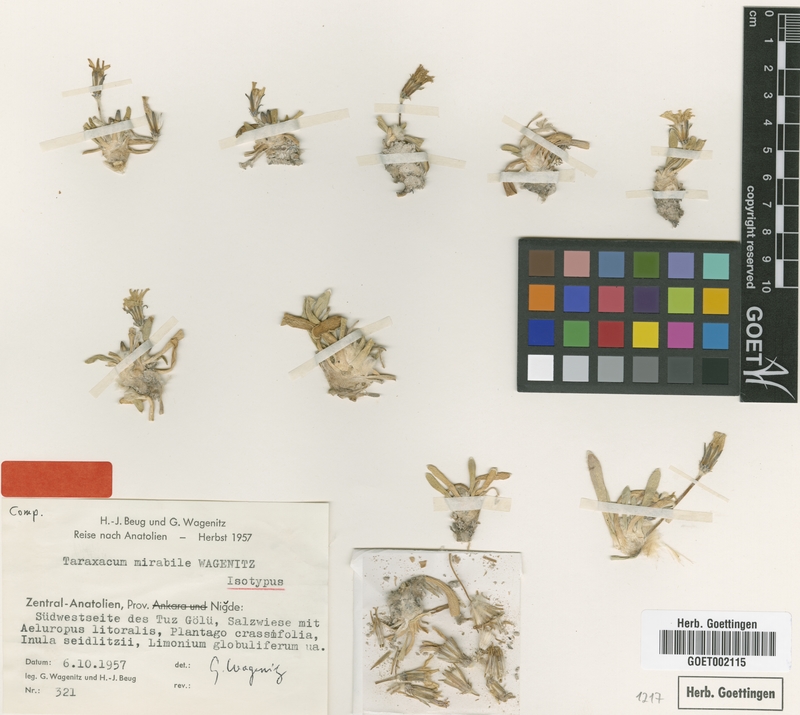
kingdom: Plantae
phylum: Tracheophyta
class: Magnoliopsida
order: Asterales
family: Asteraceae
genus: Taraxacum
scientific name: Taraxacum mirabile
